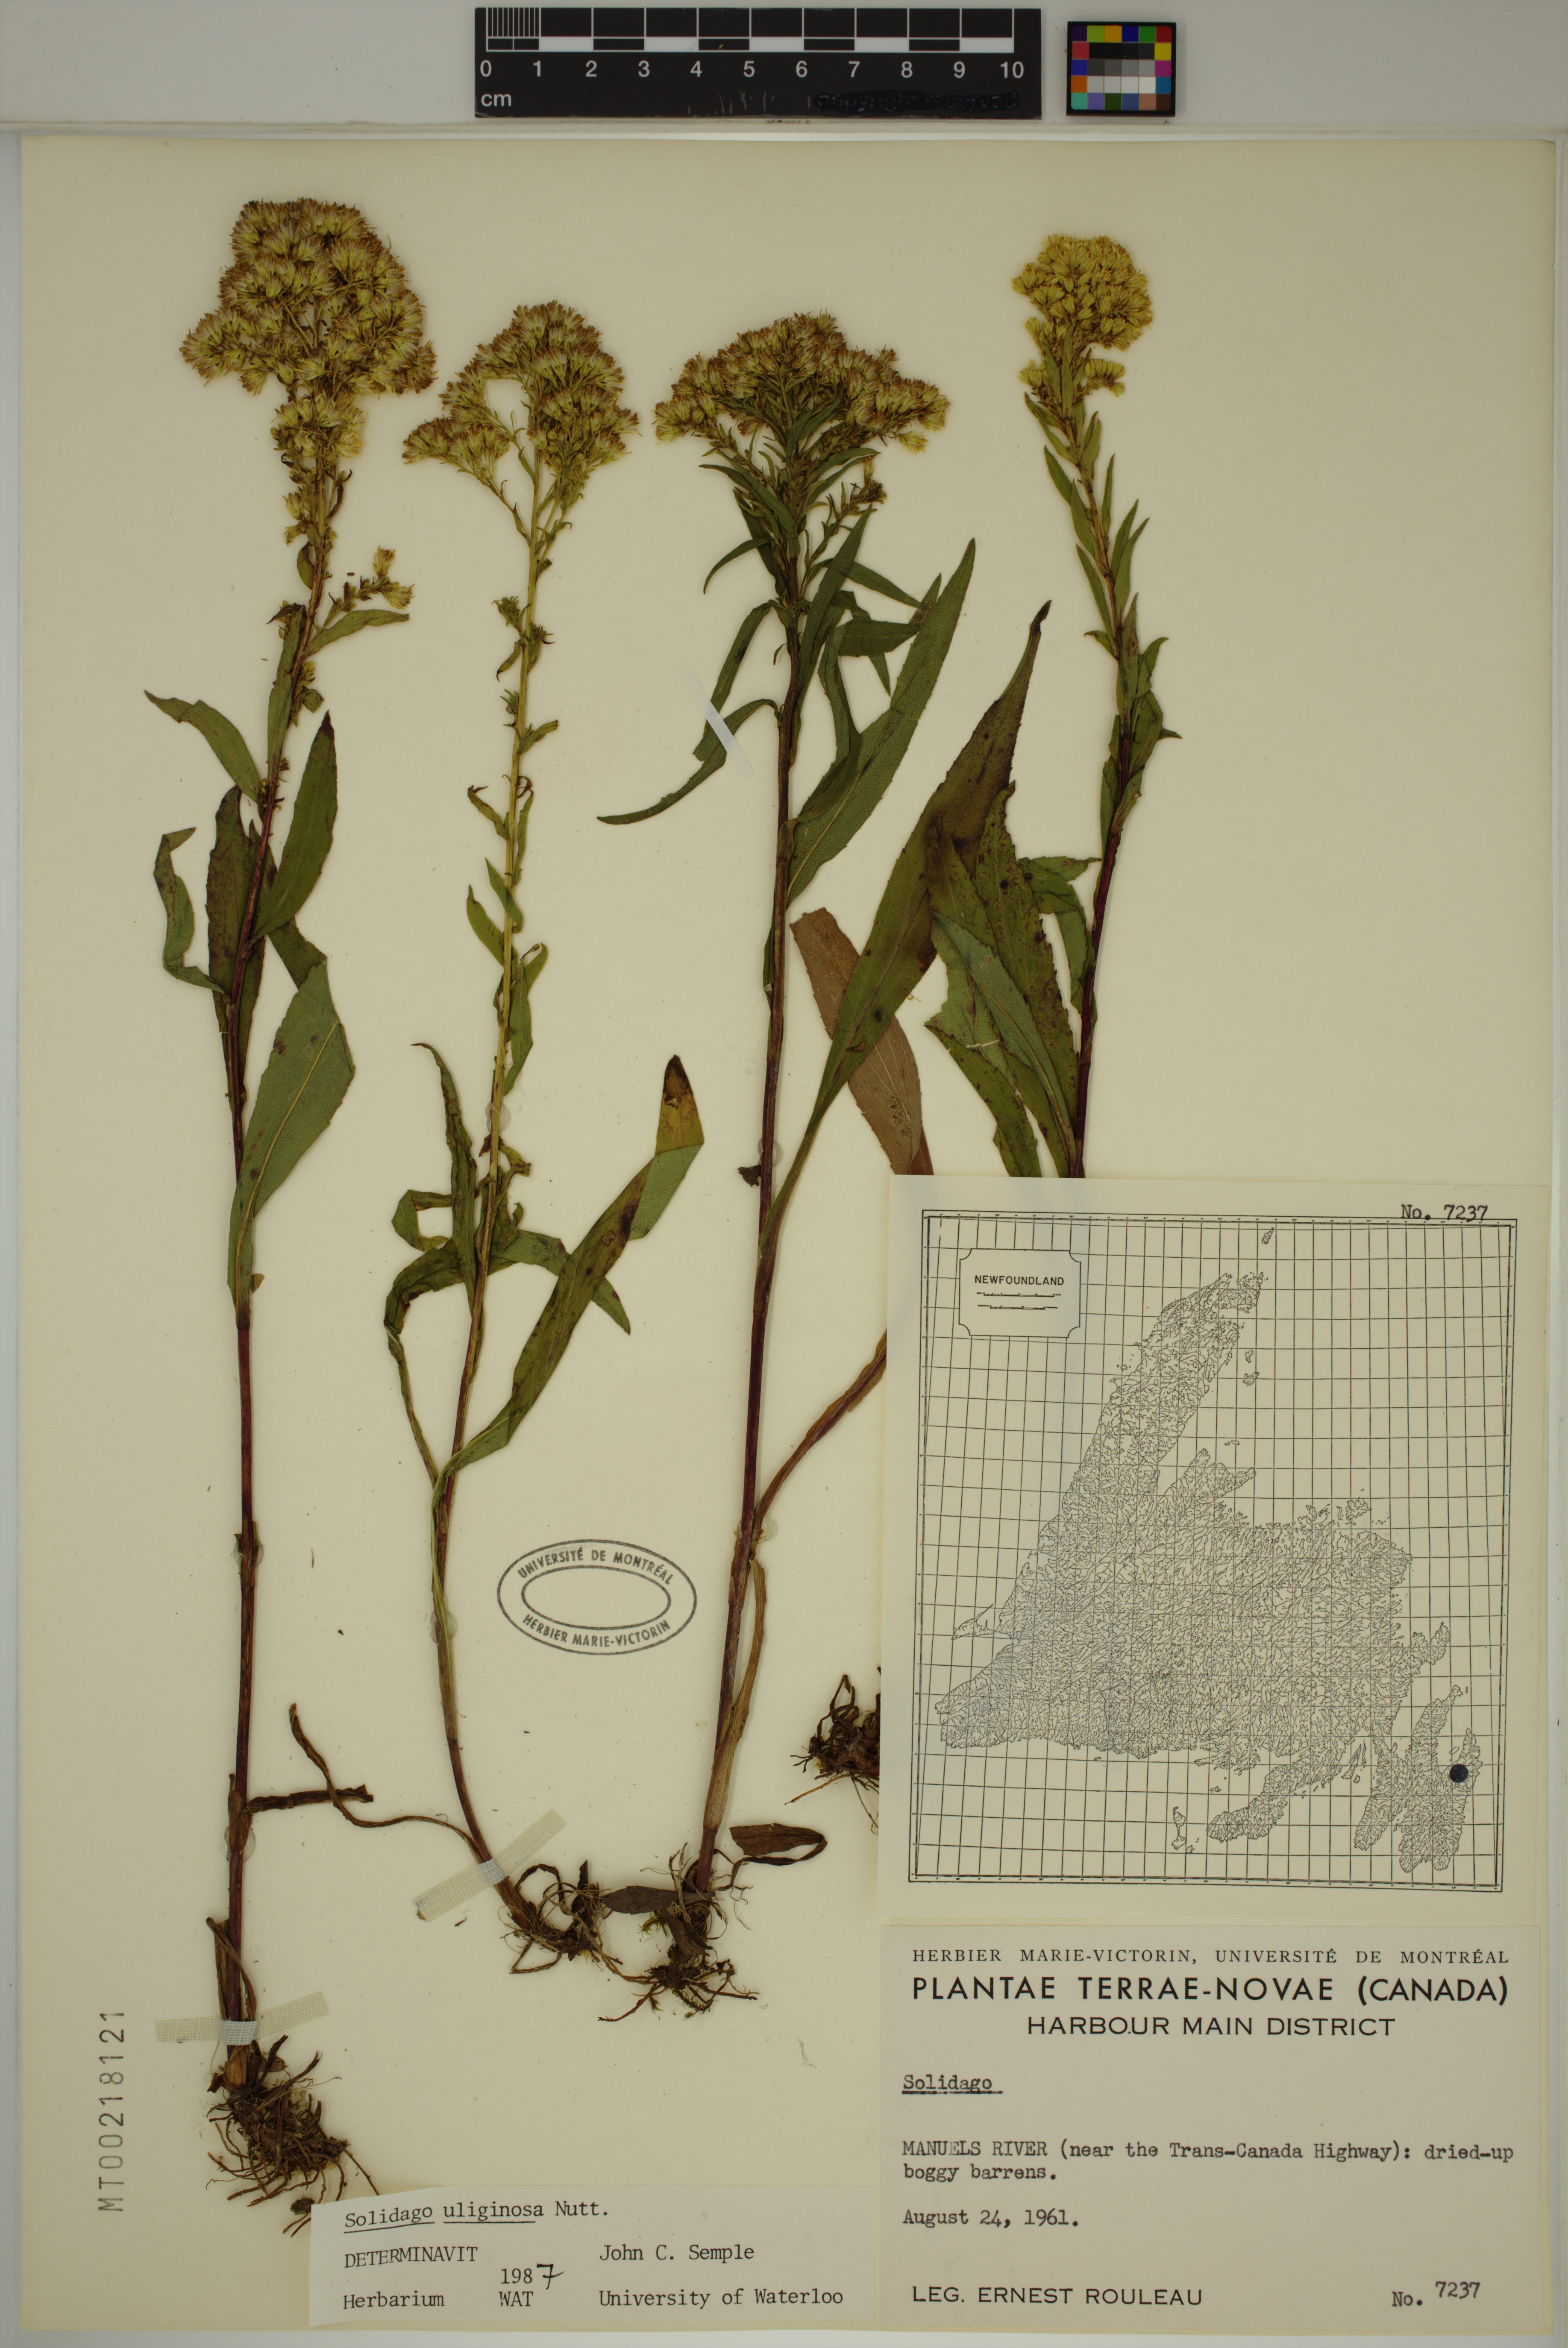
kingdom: Plantae
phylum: Tracheophyta
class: Magnoliopsida
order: Asterales
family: Asteraceae
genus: Solidago
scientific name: Solidago uliginosa
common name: Bog goldenrod
